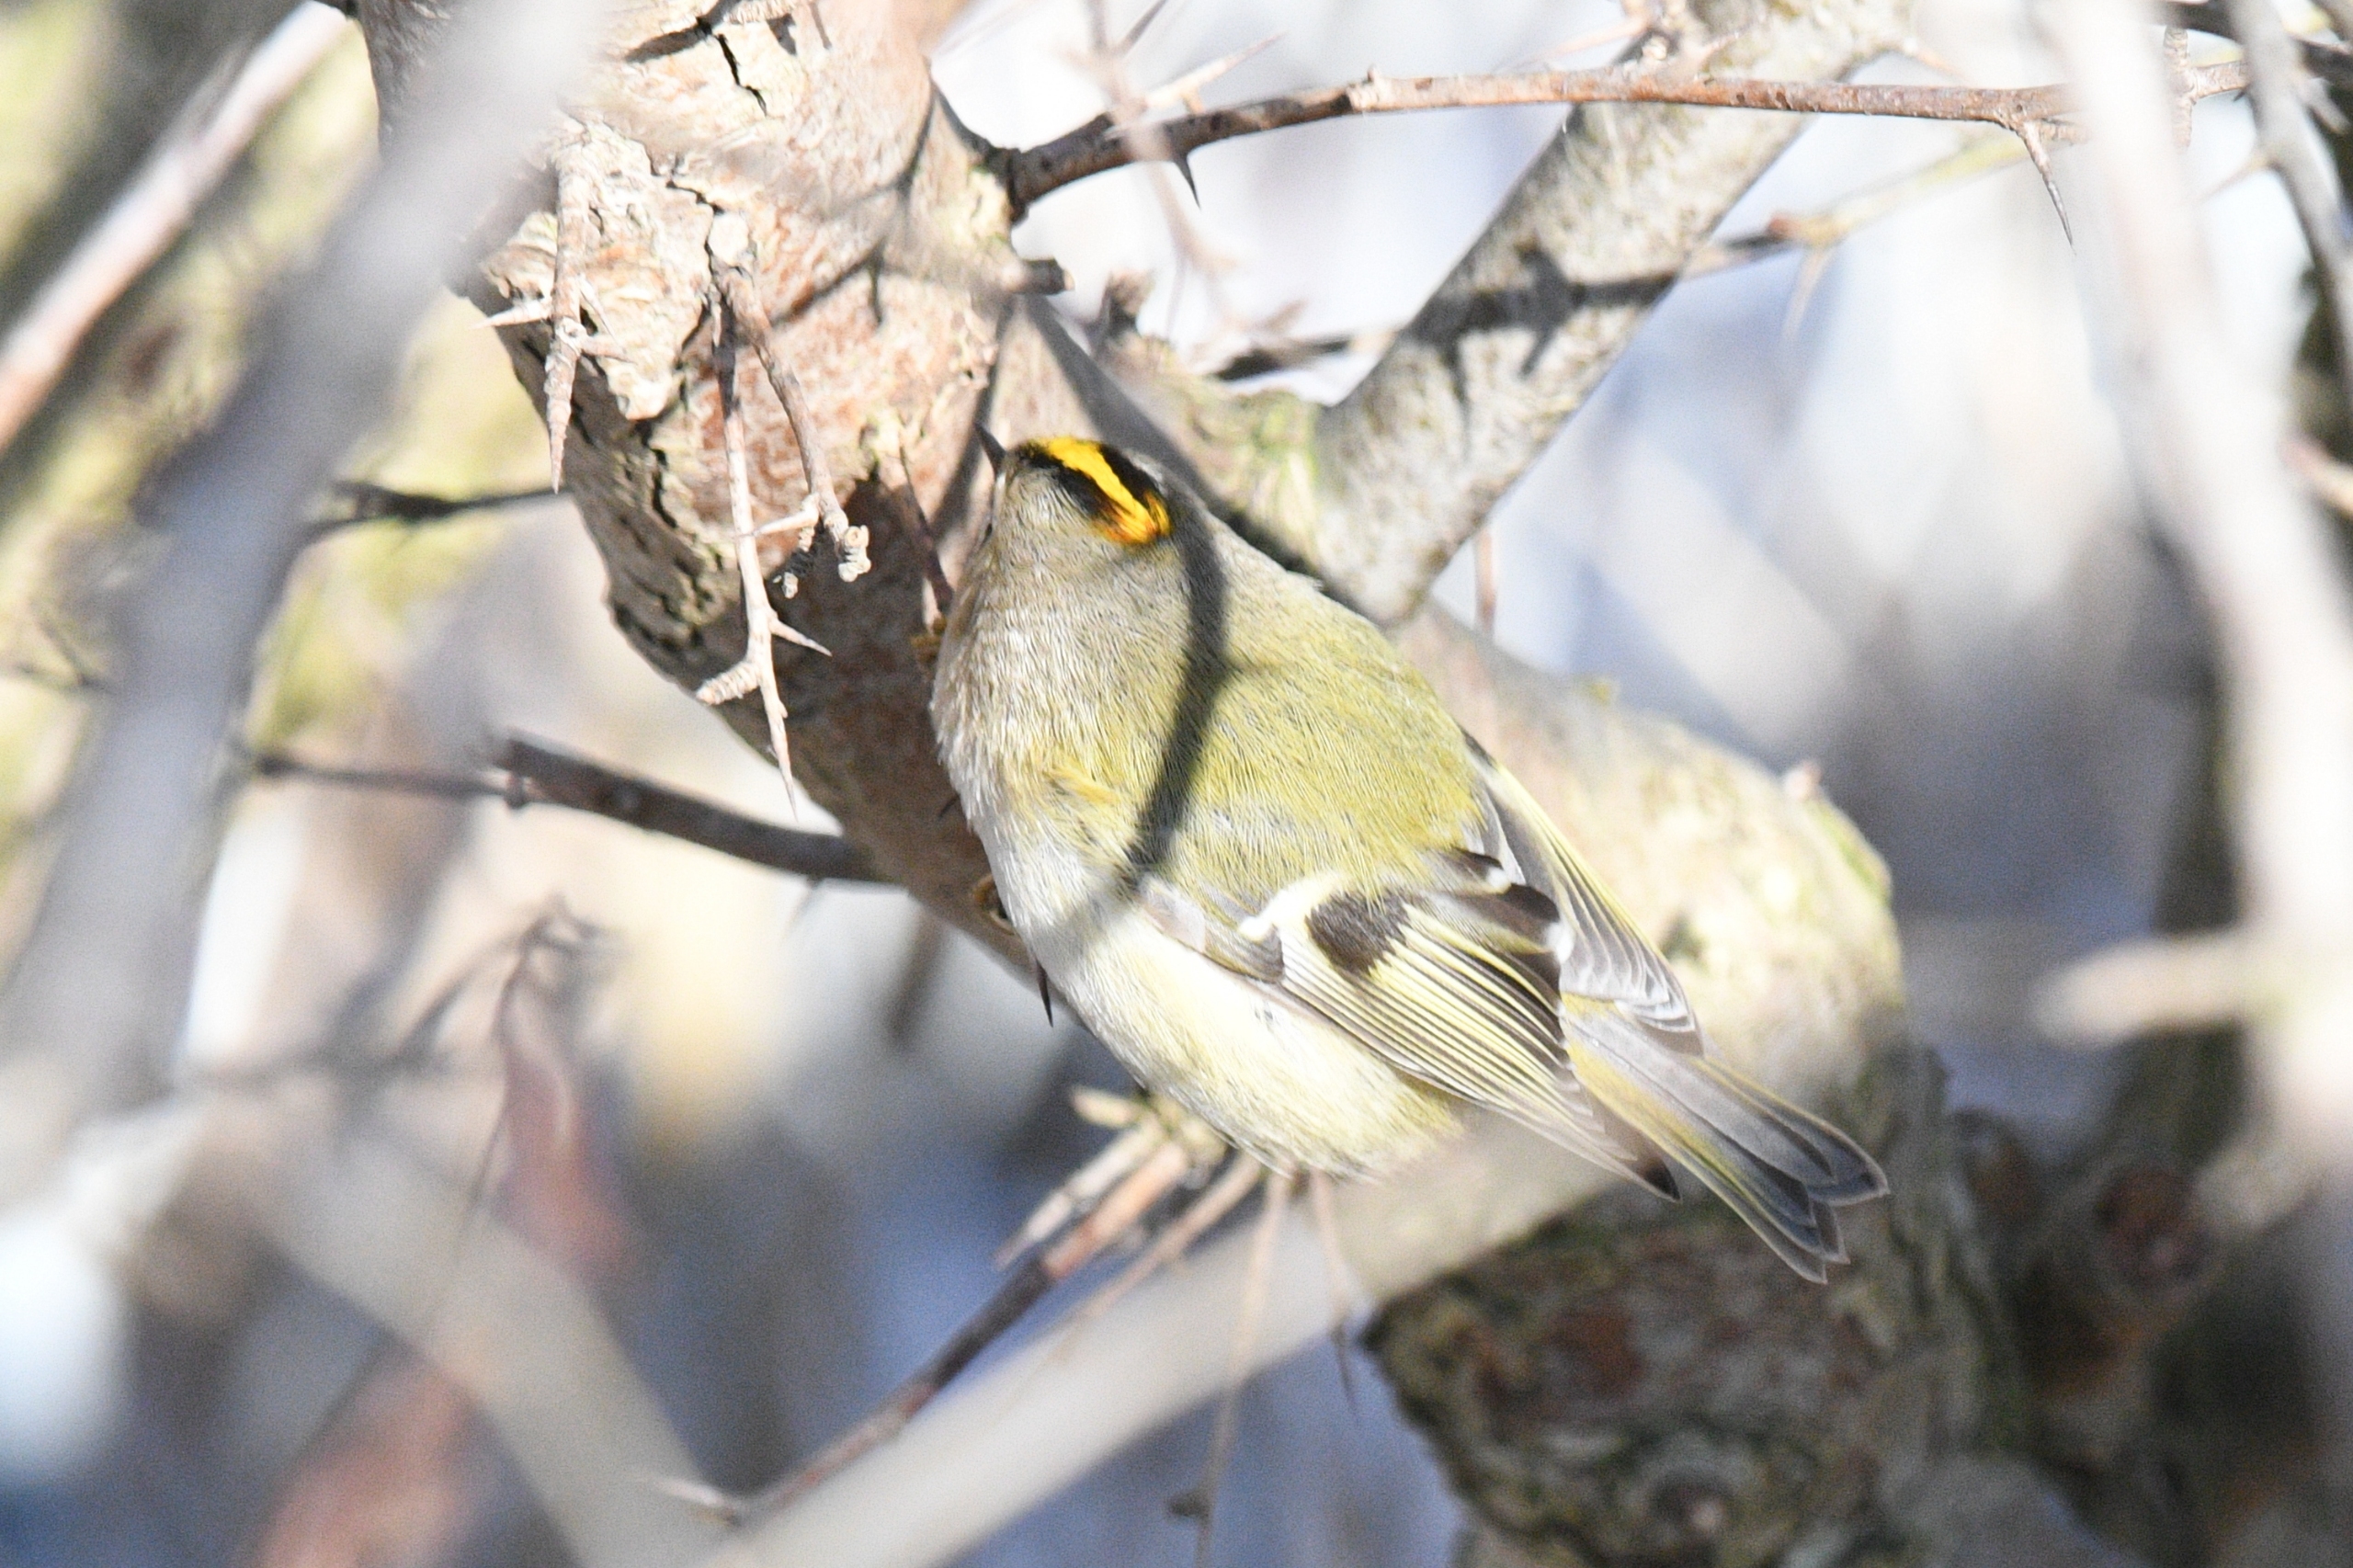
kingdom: Animalia
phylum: Chordata
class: Aves
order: Passeriformes
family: Regulidae
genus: Regulus
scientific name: Regulus regulus
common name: Fuglekonge
